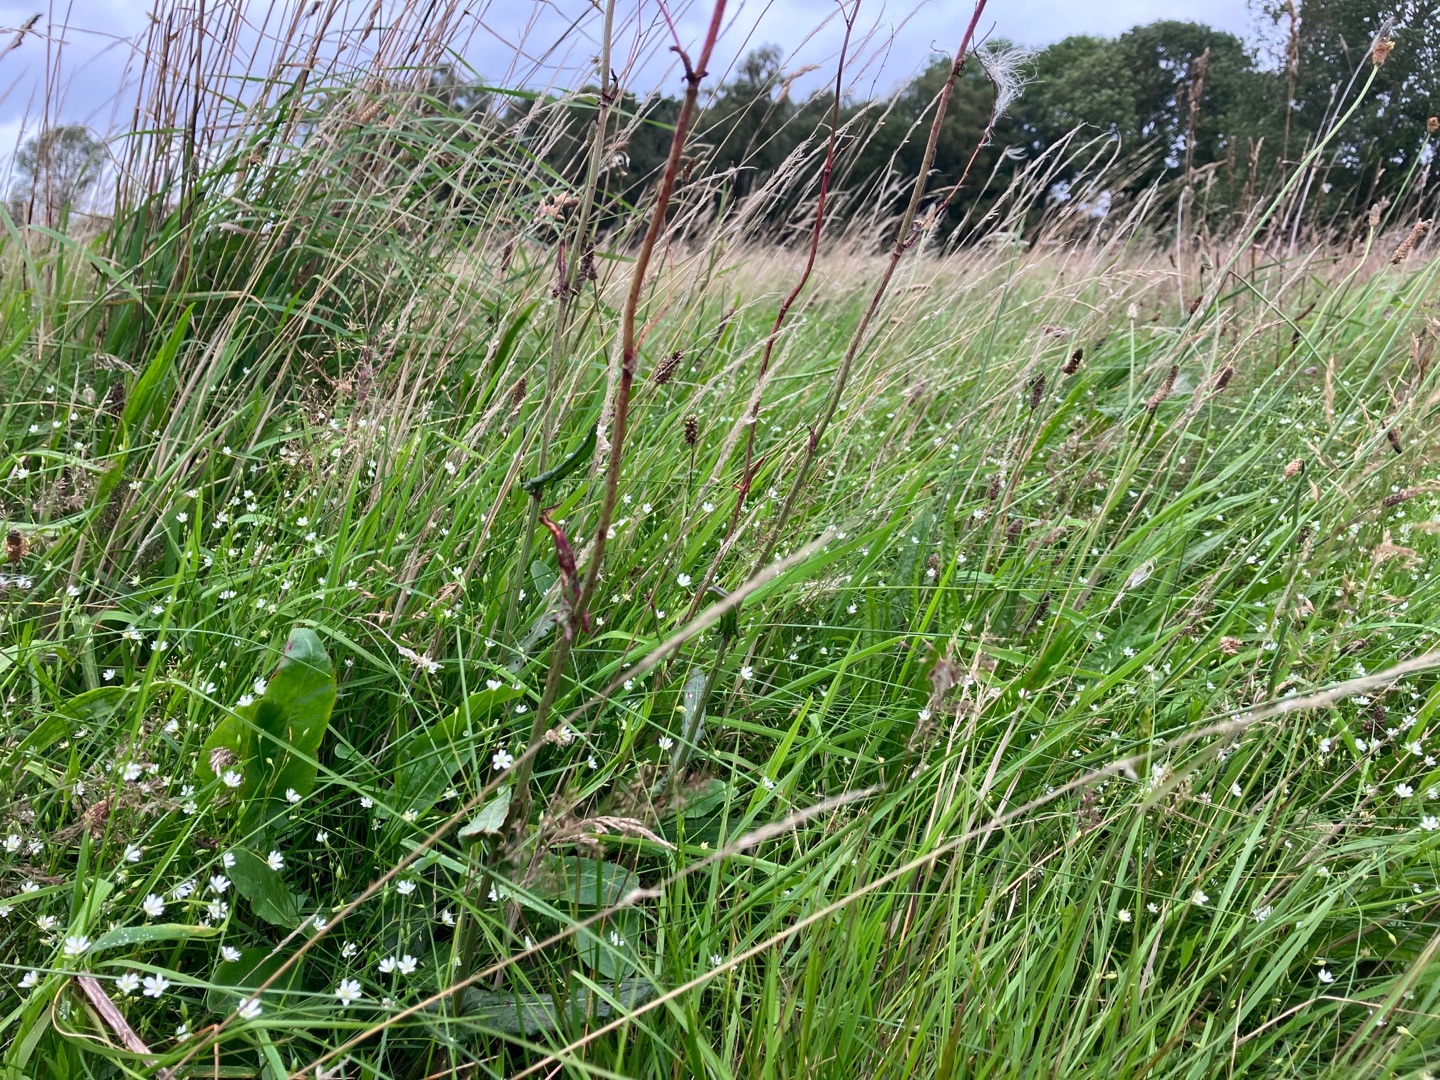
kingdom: Animalia
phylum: Arthropoda
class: Arachnida
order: Araneae
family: Araneidae
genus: Argiope
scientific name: Argiope bruennichi
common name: Hvepseedderkop
